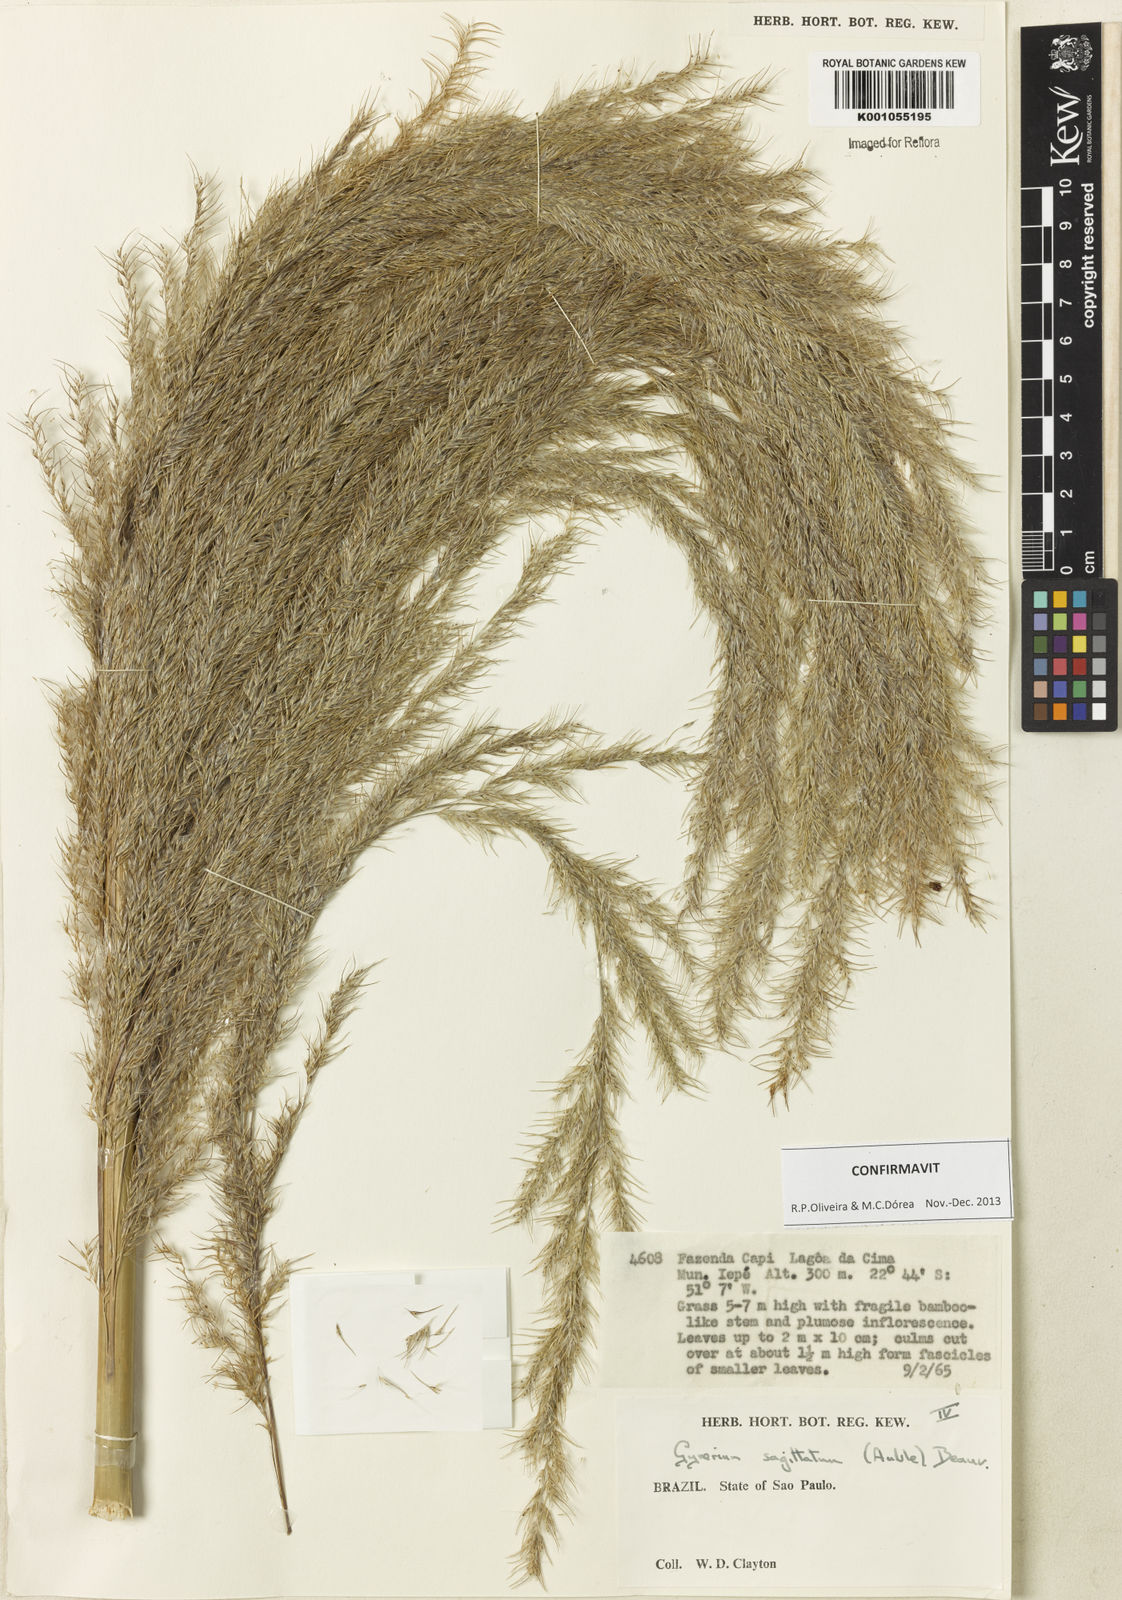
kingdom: Plantae
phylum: Tracheophyta
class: Liliopsida
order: Poales
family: Poaceae
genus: Gynerium
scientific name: Gynerium sagittatum
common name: Wild cane
